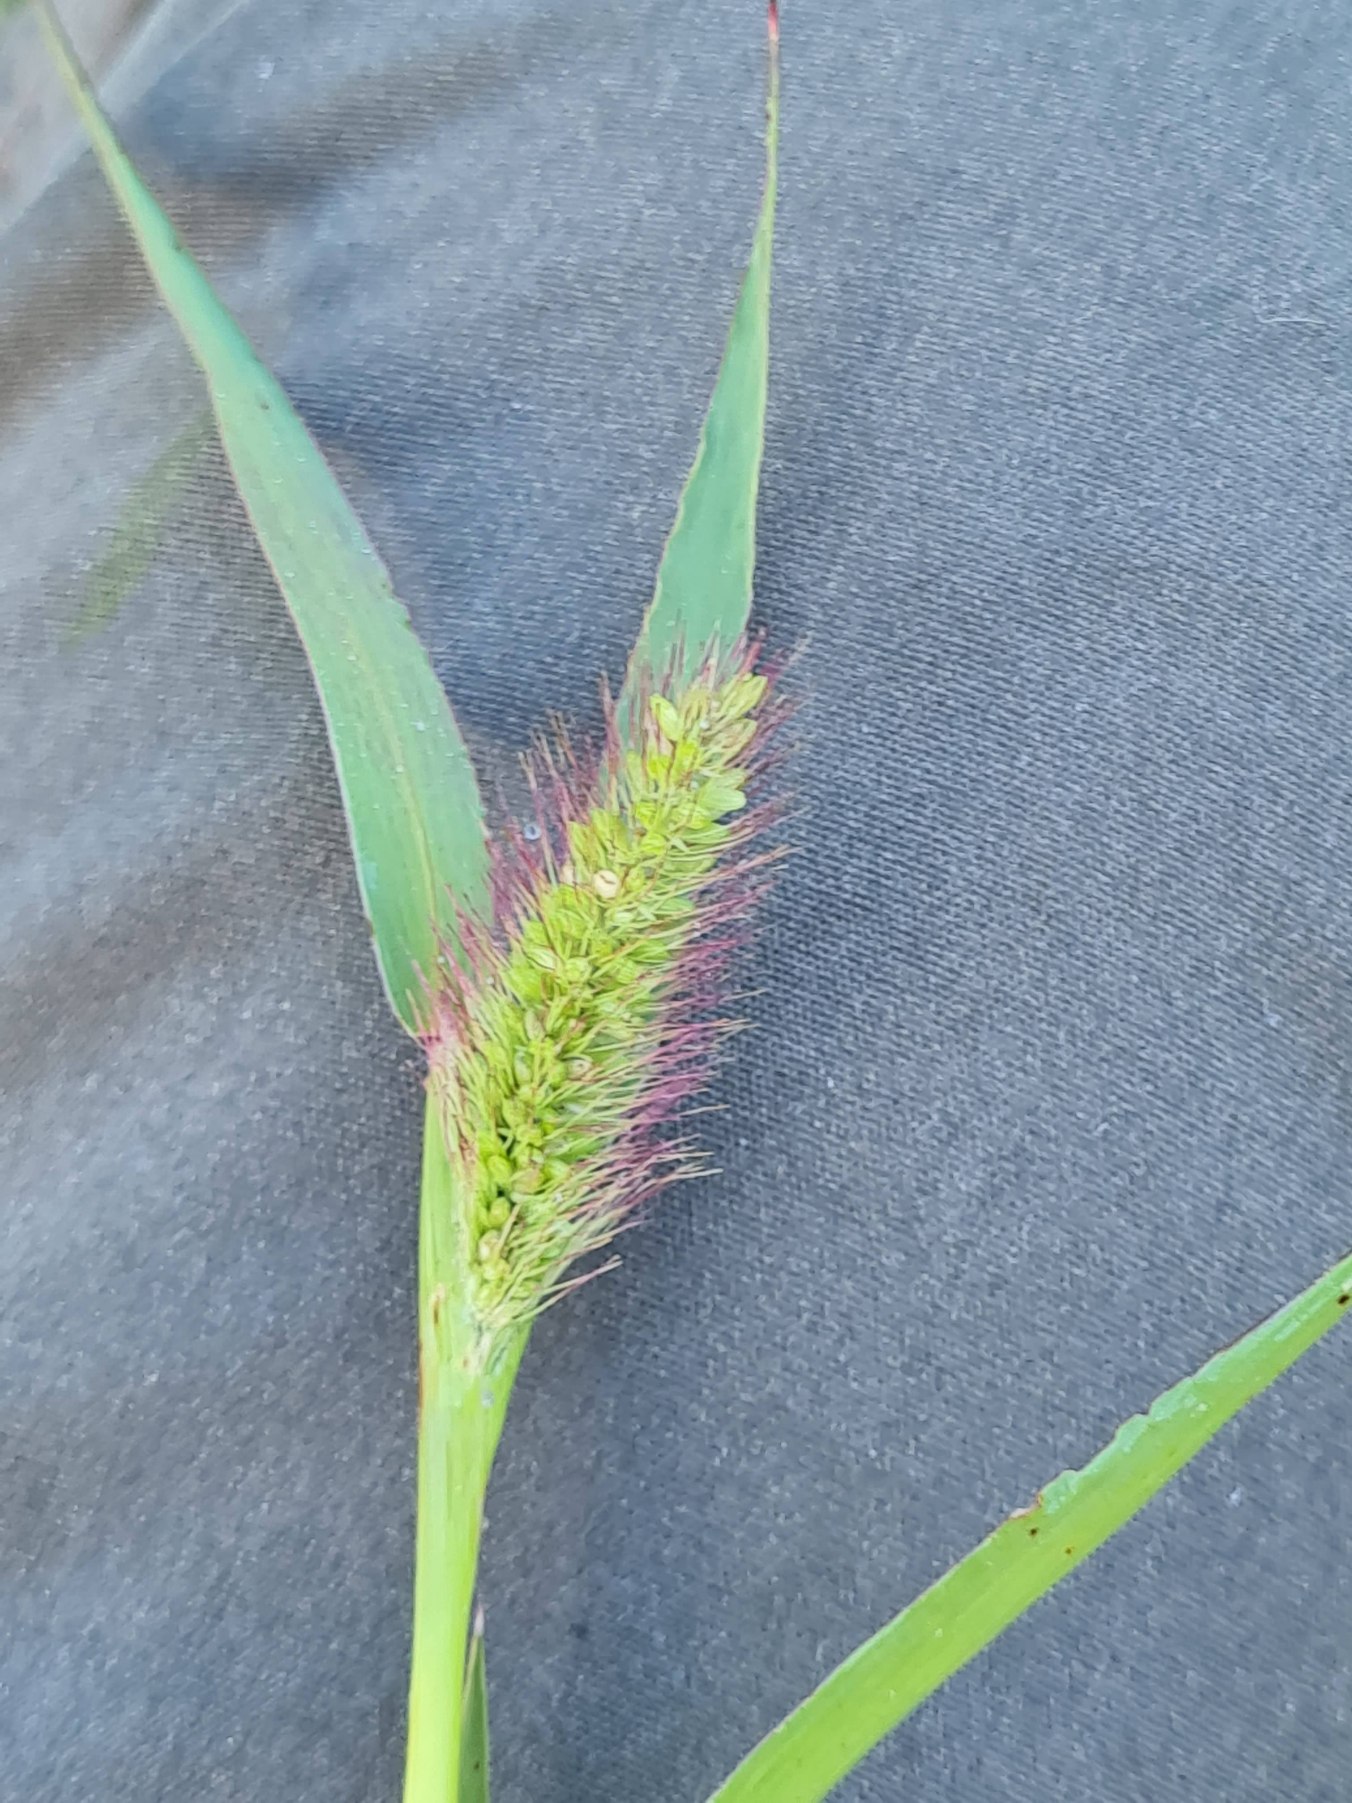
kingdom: Plantae
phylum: Tracheophyta
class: Liliopsida
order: Poales
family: Poaceae
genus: Setaria
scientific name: Setaria viridis
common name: Grøn skærmaks
